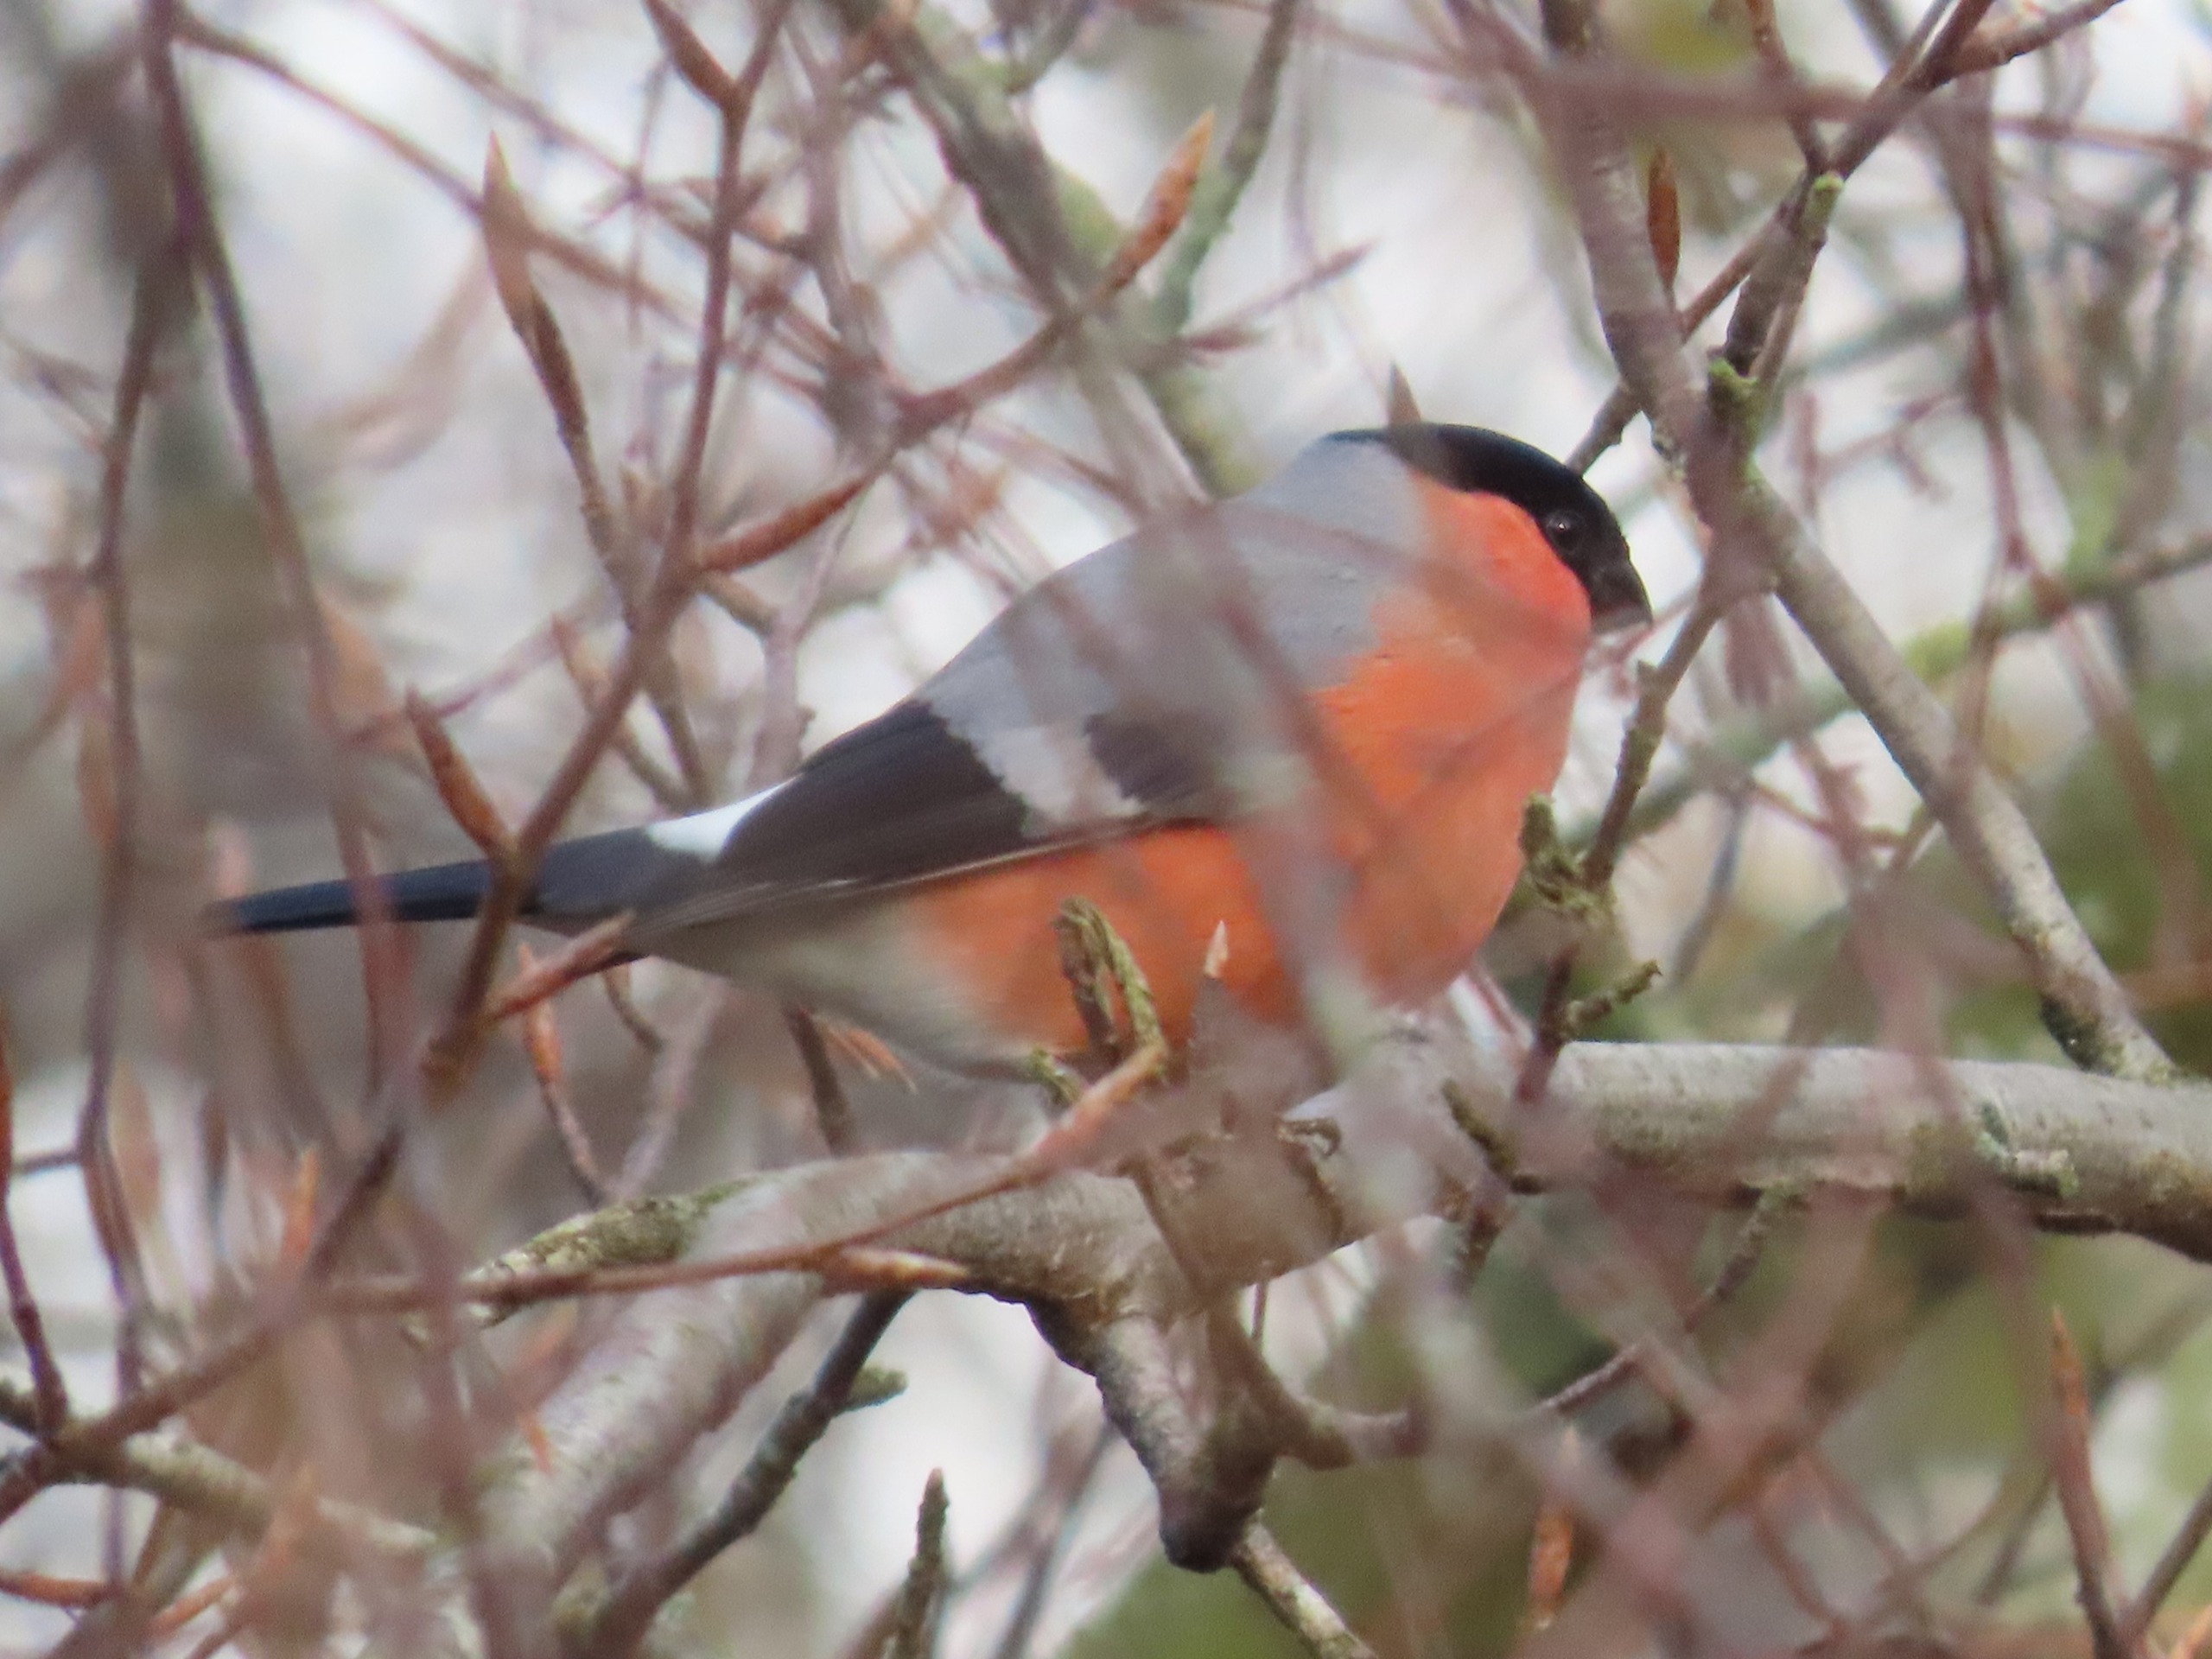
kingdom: Animalia
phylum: Chordata
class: Aves
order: Passeriformes
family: Fringillidae
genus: Pyrrhula
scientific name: Pyrrhula pyrrhula
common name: Dompap
